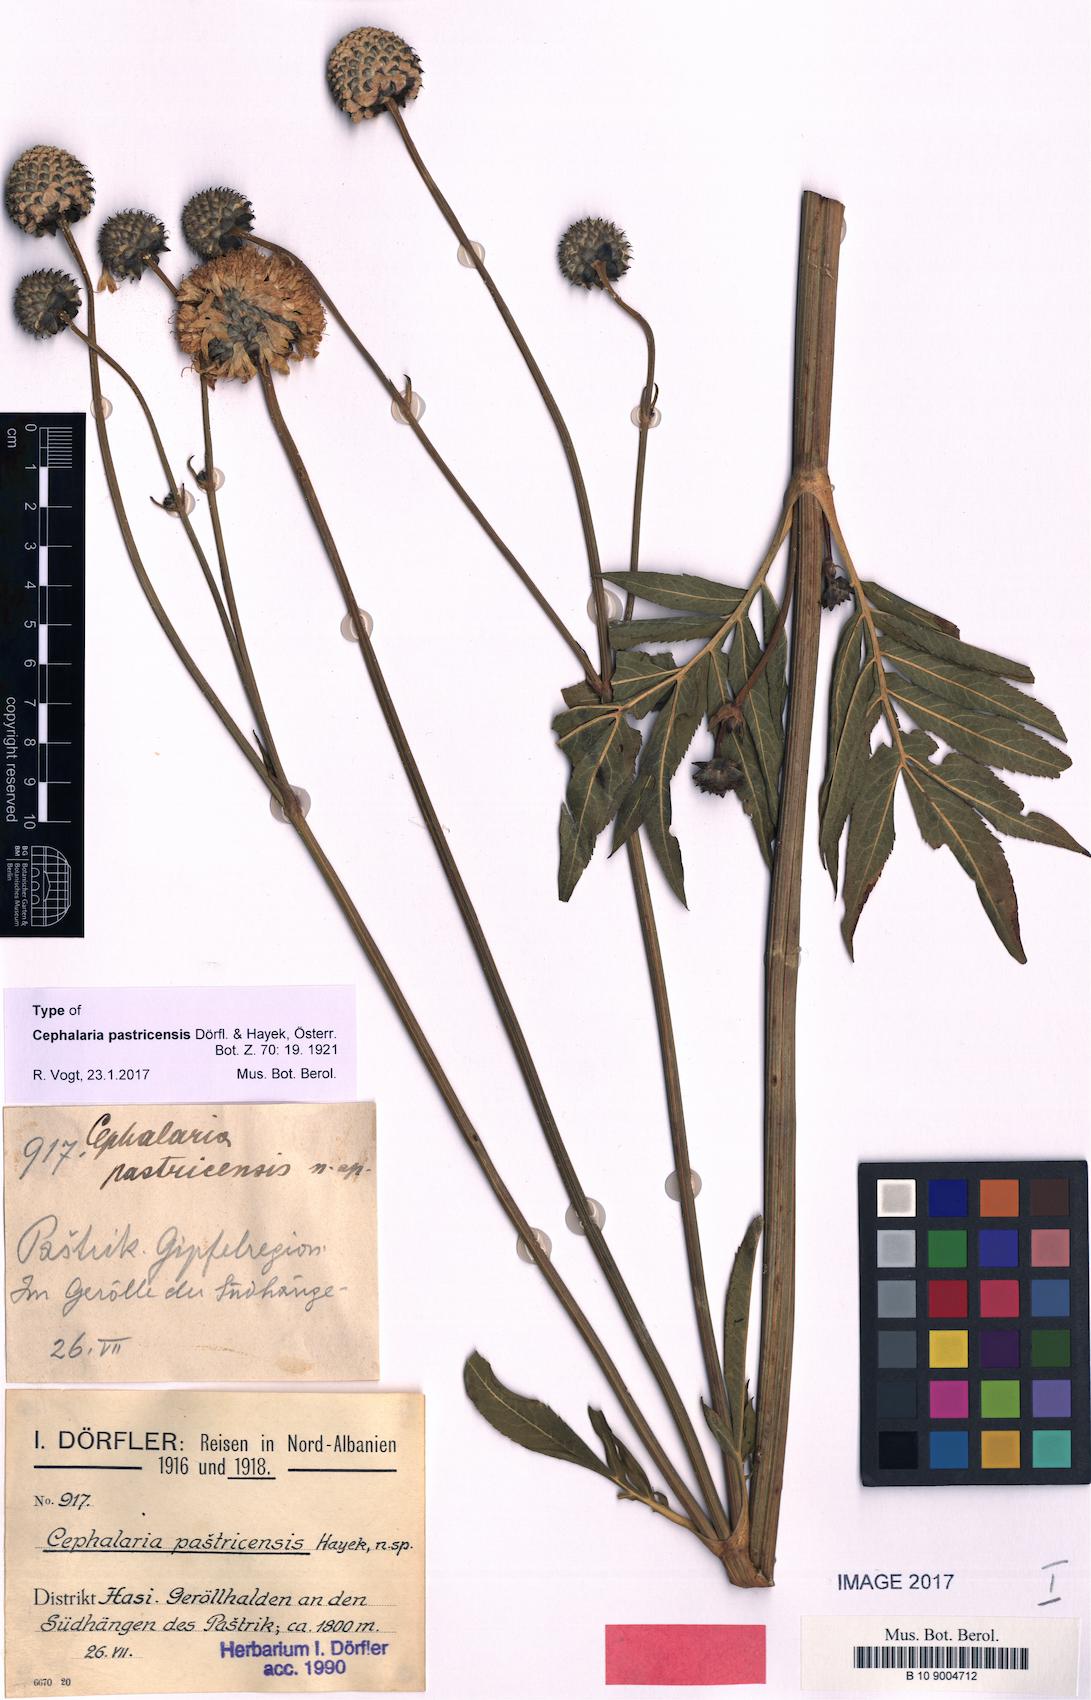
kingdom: Plantae
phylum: Tracheophyta
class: Magnoliopsida
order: Dipsacales
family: Caprifoliaceae
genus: Cephalaria
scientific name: Cephalaria pastricensis
